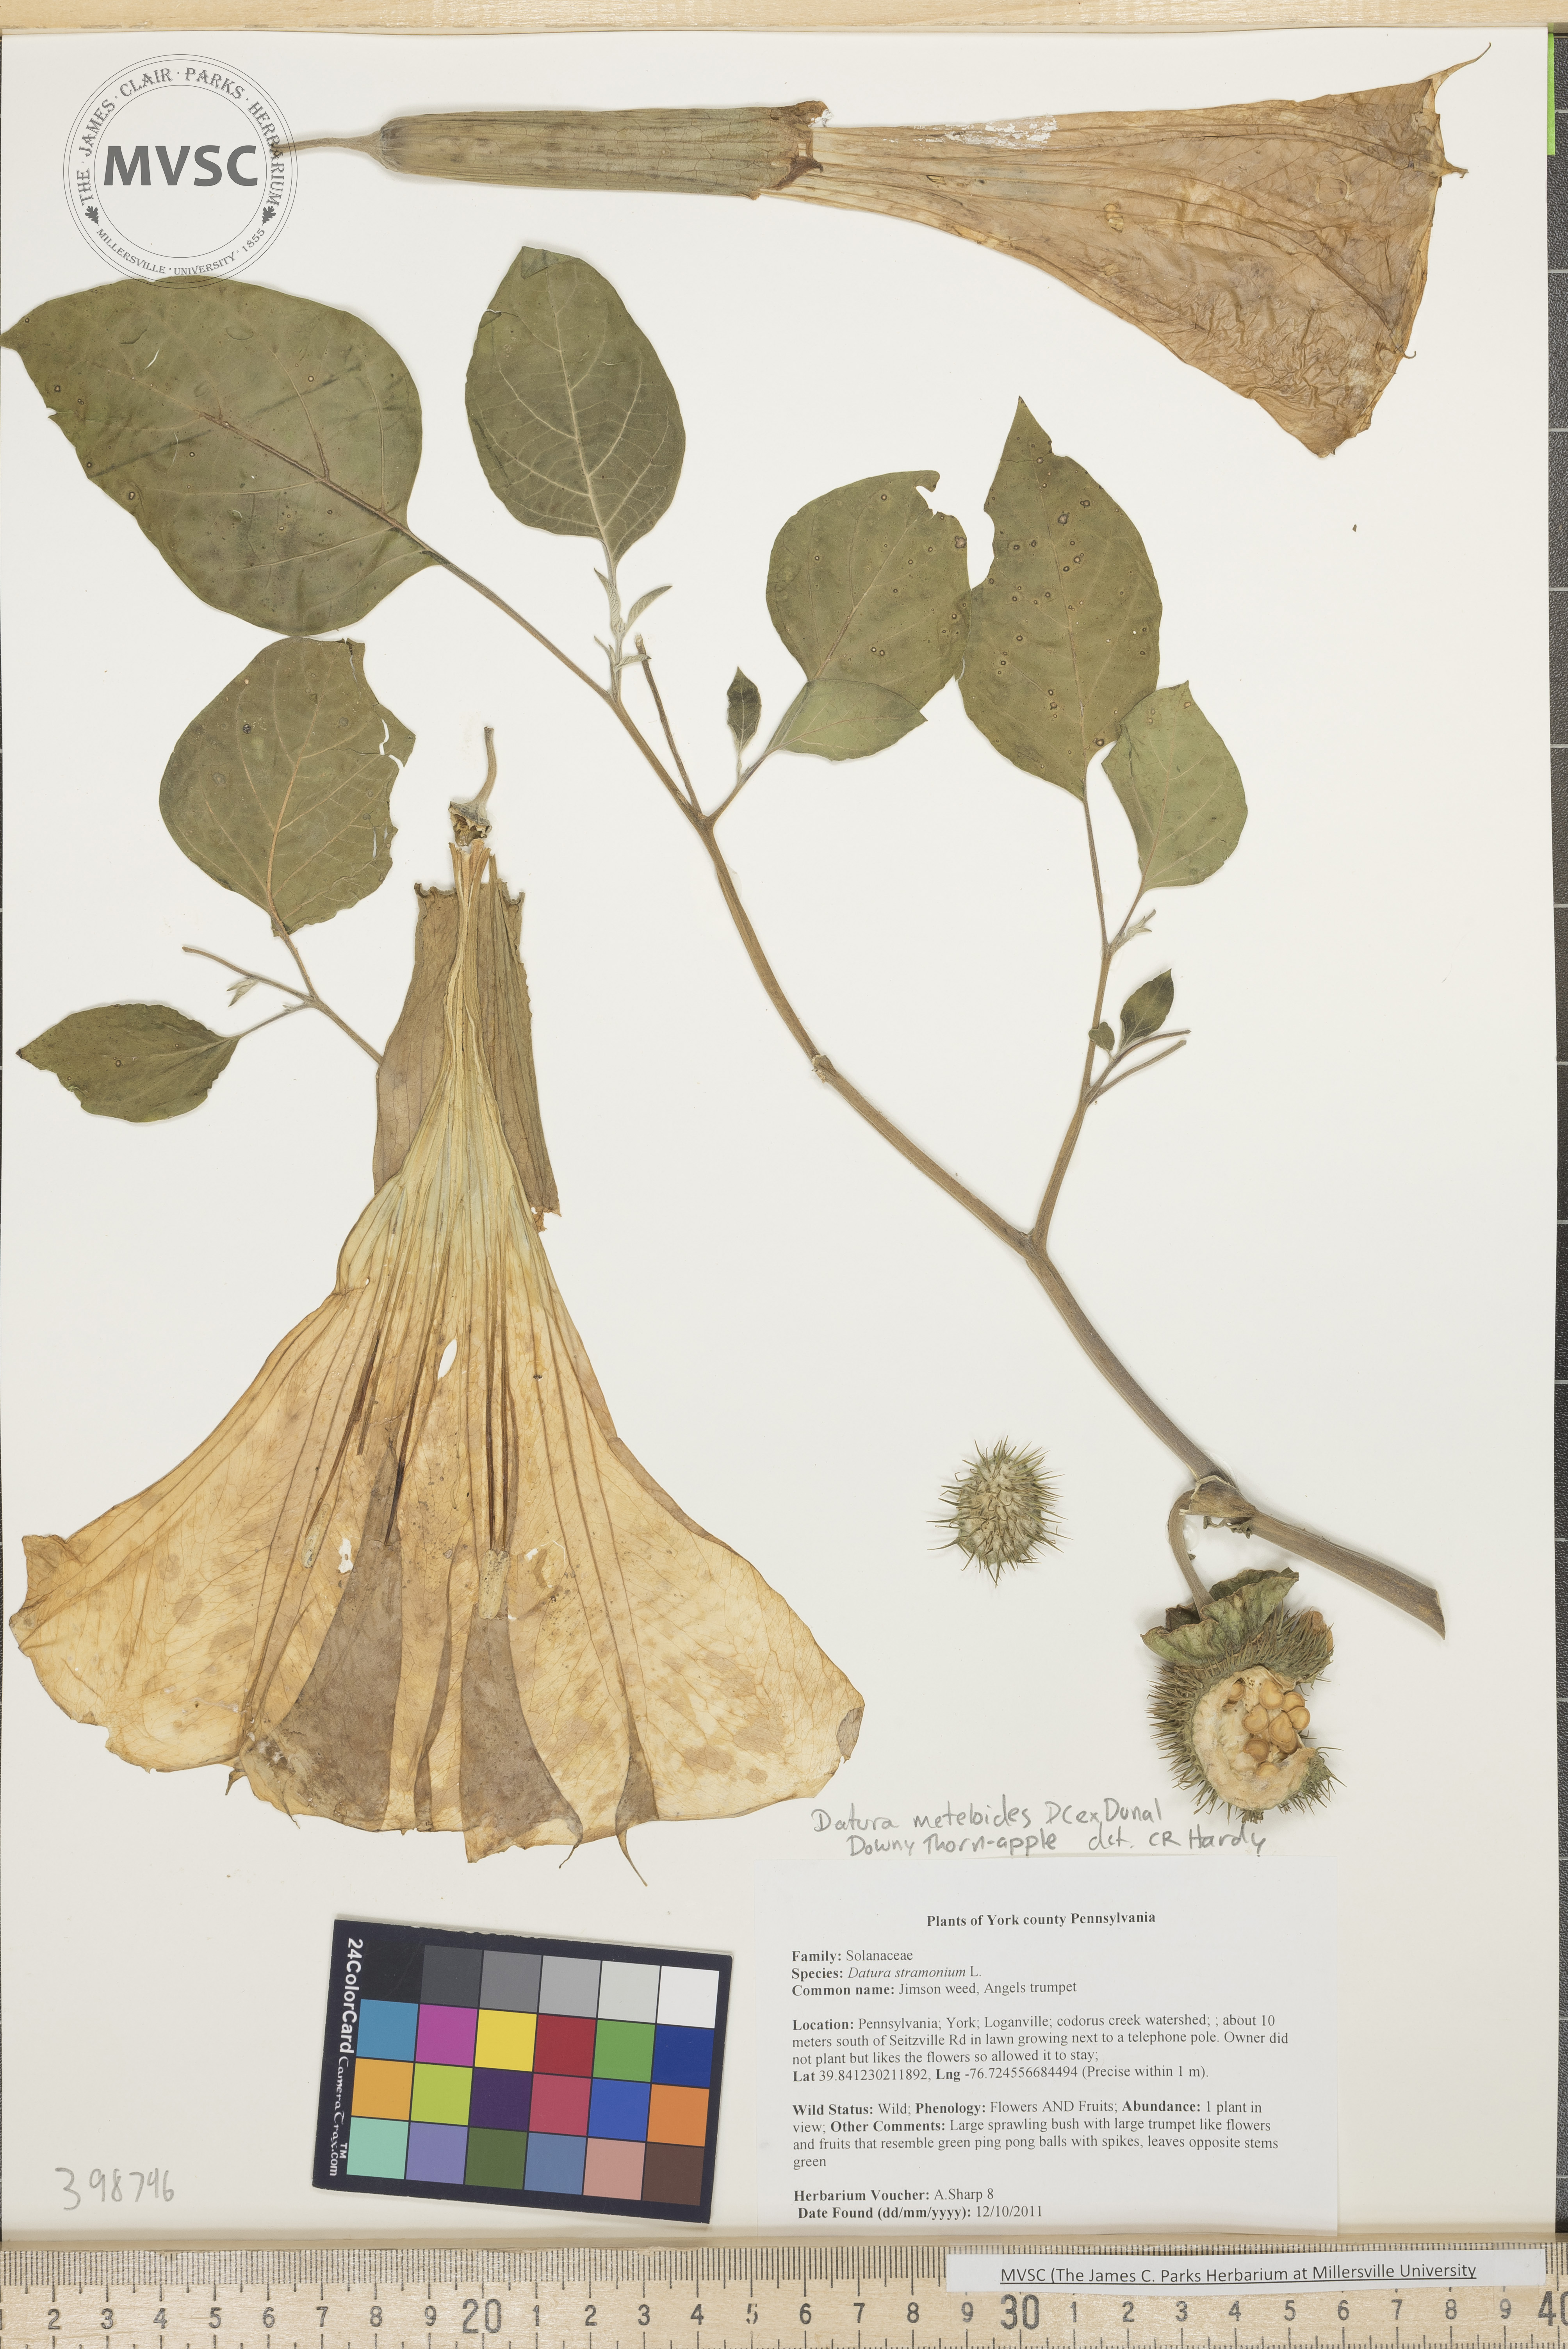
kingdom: Plantae
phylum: Tracheophyta
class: Magnoliopsida
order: Solanales
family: Solanaceae
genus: Datura
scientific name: Datura innoxia
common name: Downy thorn-apple
